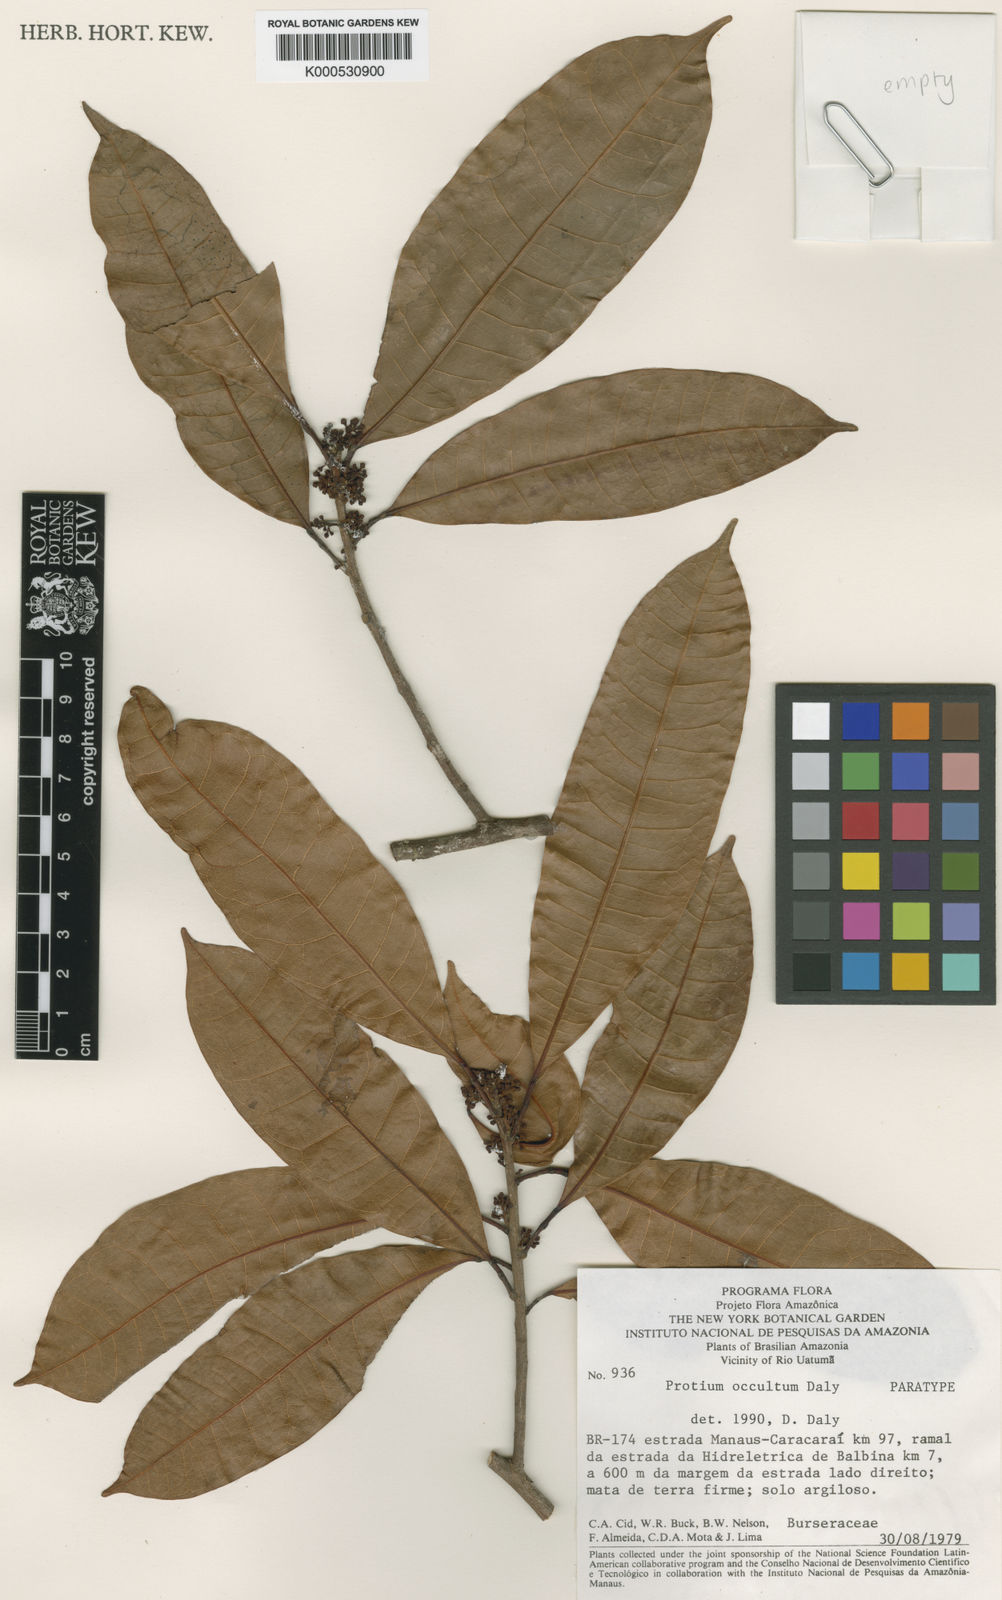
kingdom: Plantae
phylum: Tracheophyta
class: Magnoliopsida
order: Sapindales
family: Burseraceae
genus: Protium
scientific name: Protium occultum
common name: White breu
